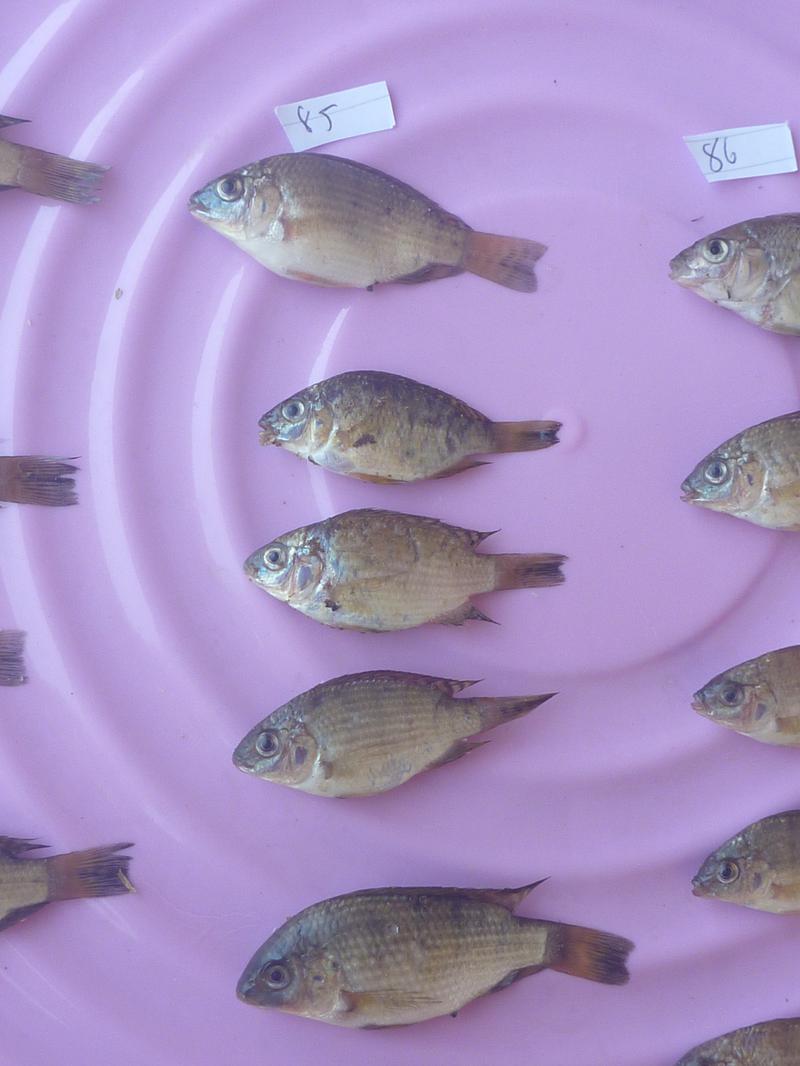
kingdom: Animalia
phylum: Chordata
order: Perciformes
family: Cichlidae
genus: Oreochromis
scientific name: Oreochromis shiranus
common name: Chilwa tilapia
